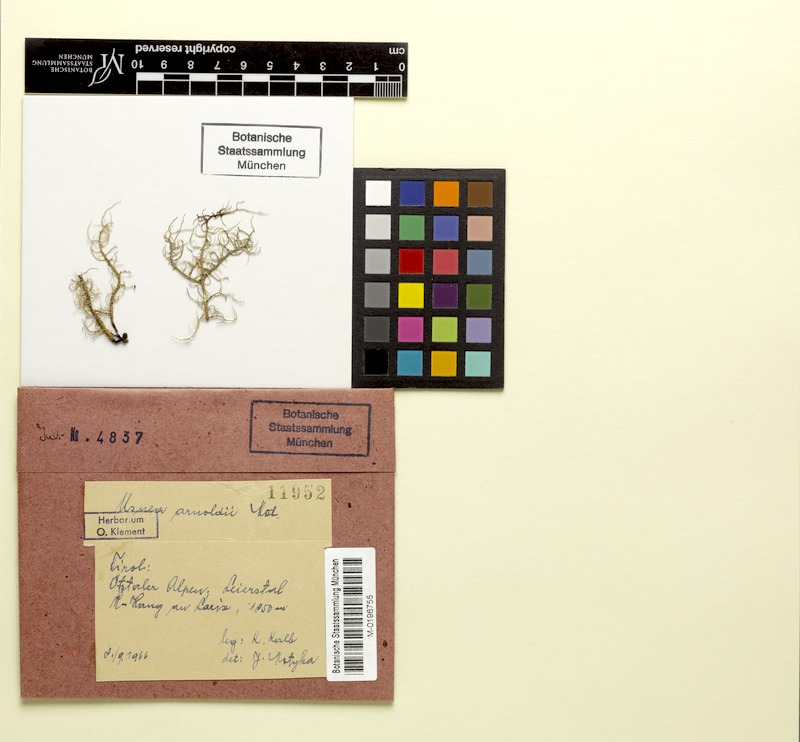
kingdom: Fungi
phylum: Ascomycota
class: Lecanoromycetes
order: Lecanorales
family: Parmeliaceae
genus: Usnea
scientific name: Usnea lapponica
